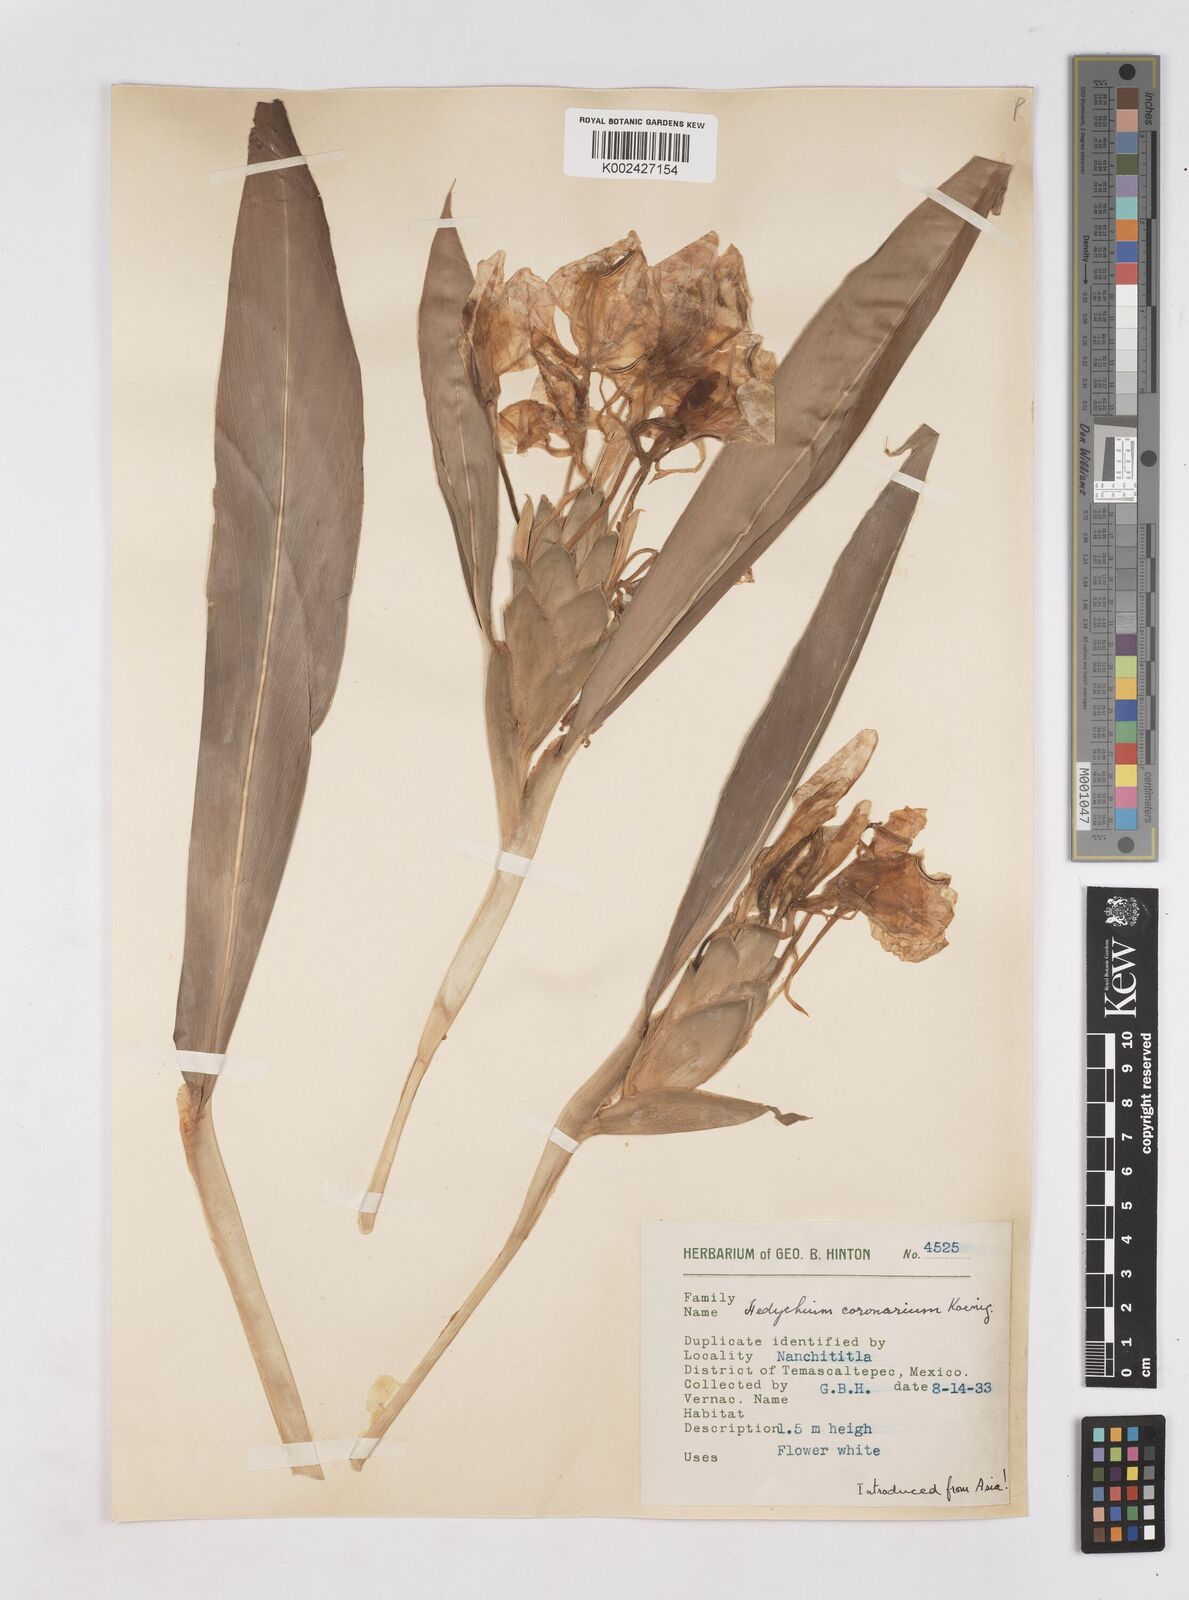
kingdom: Plantae
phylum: Tracheophyta
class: Liliopsida
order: Zingiberales
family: Zingiberaceae
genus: Hedychium
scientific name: Hedychium coronarium
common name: White garland-lily
